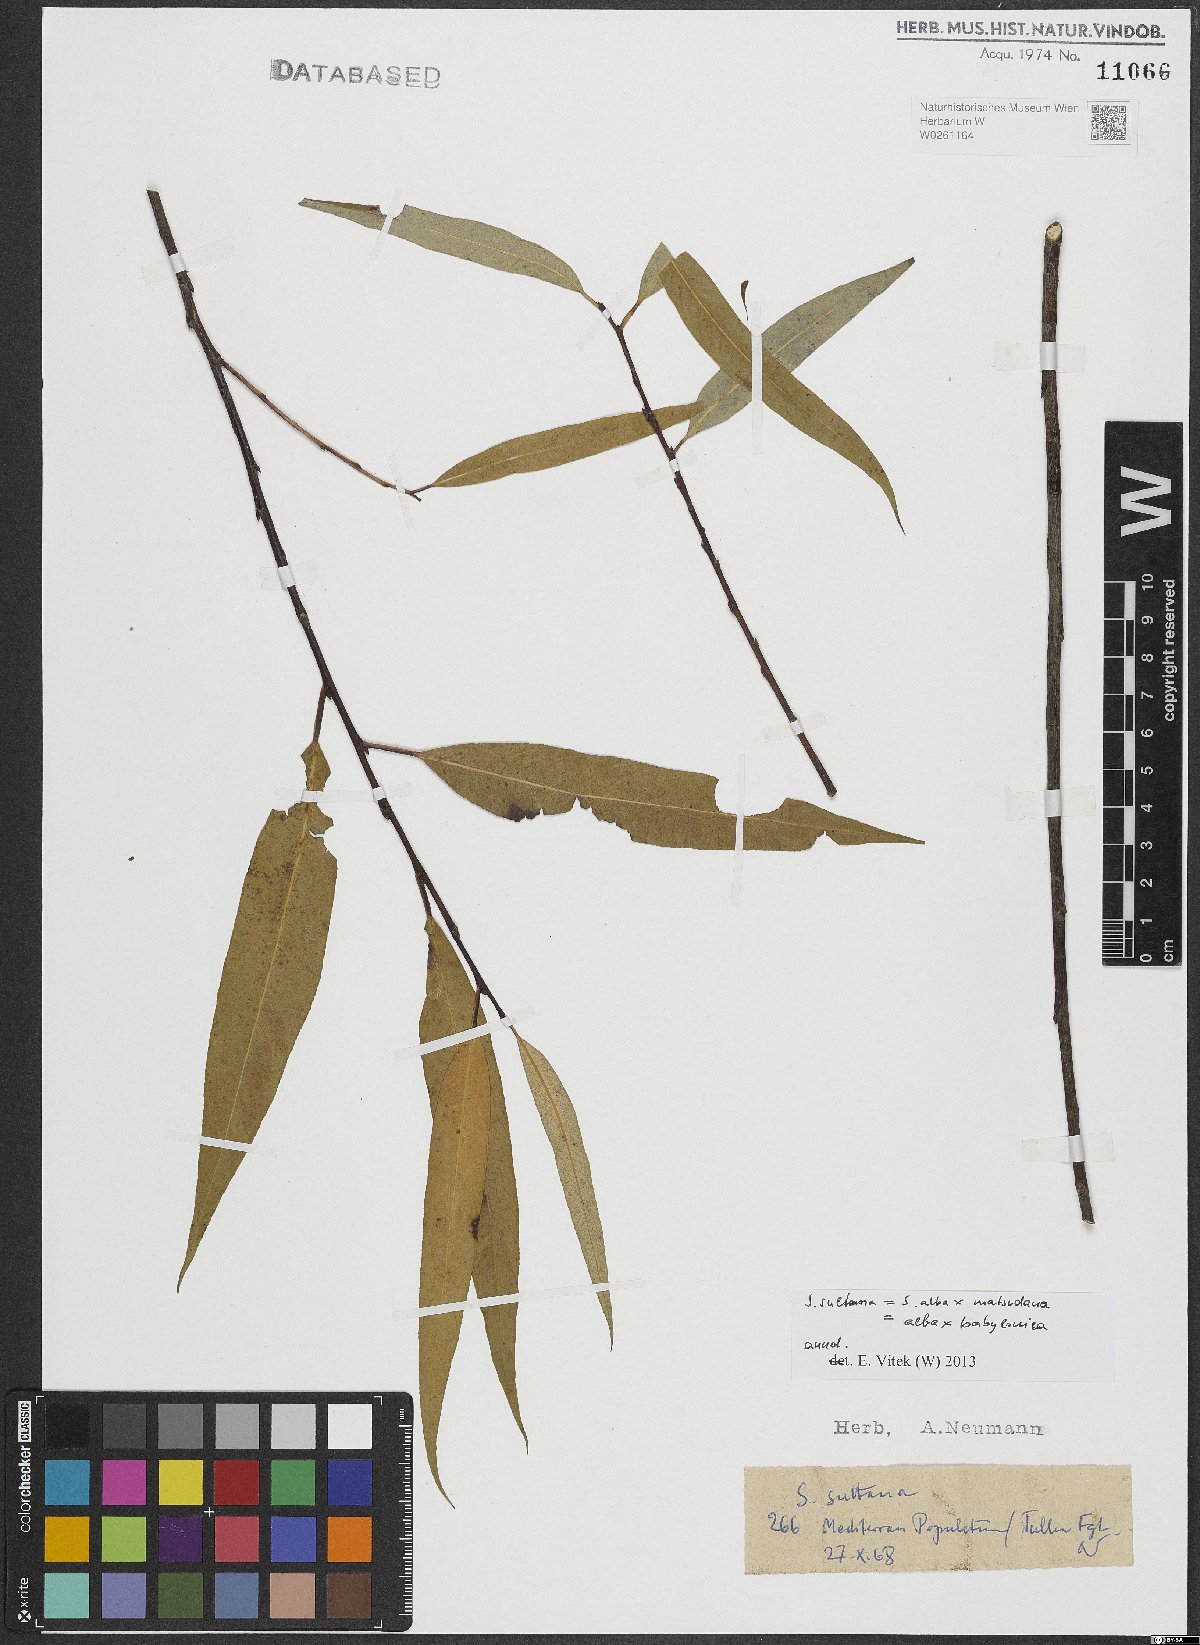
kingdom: Plantae
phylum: Tracheophyta
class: Magnoliopsida
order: Malpighiales
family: Salicaceae
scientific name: Salicaceae
